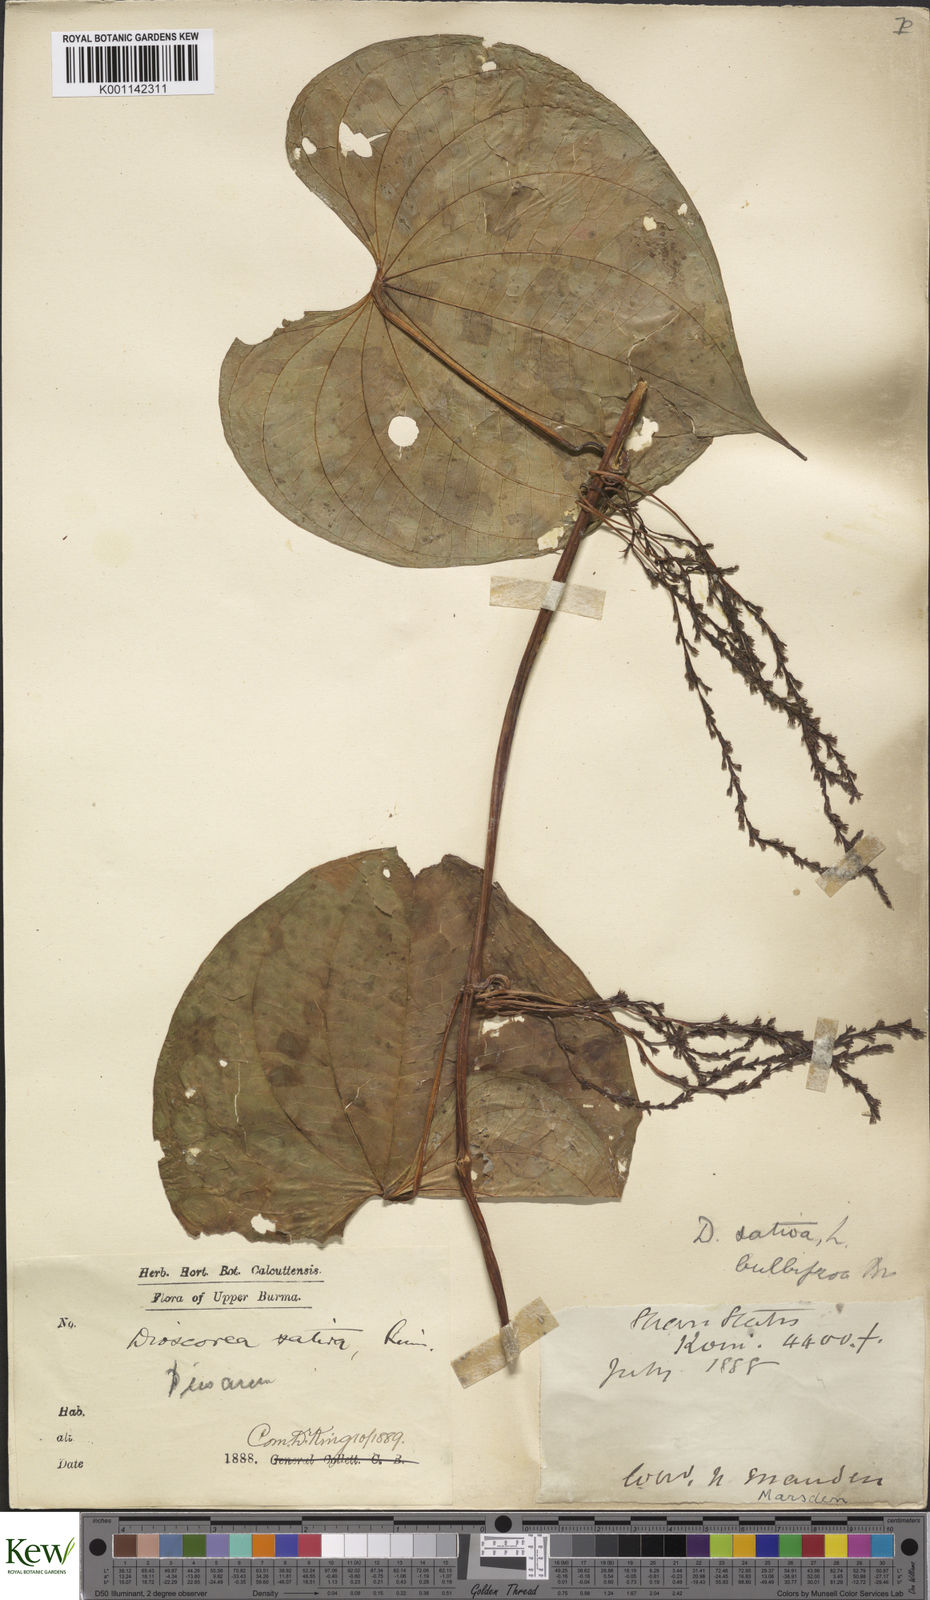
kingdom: Plantae
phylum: Tracheophyta
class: Liliopsida
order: Dioscoreales
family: Dioscoreaceae
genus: Dioscorea
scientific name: Dioscorea bulbifera
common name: Air yam
